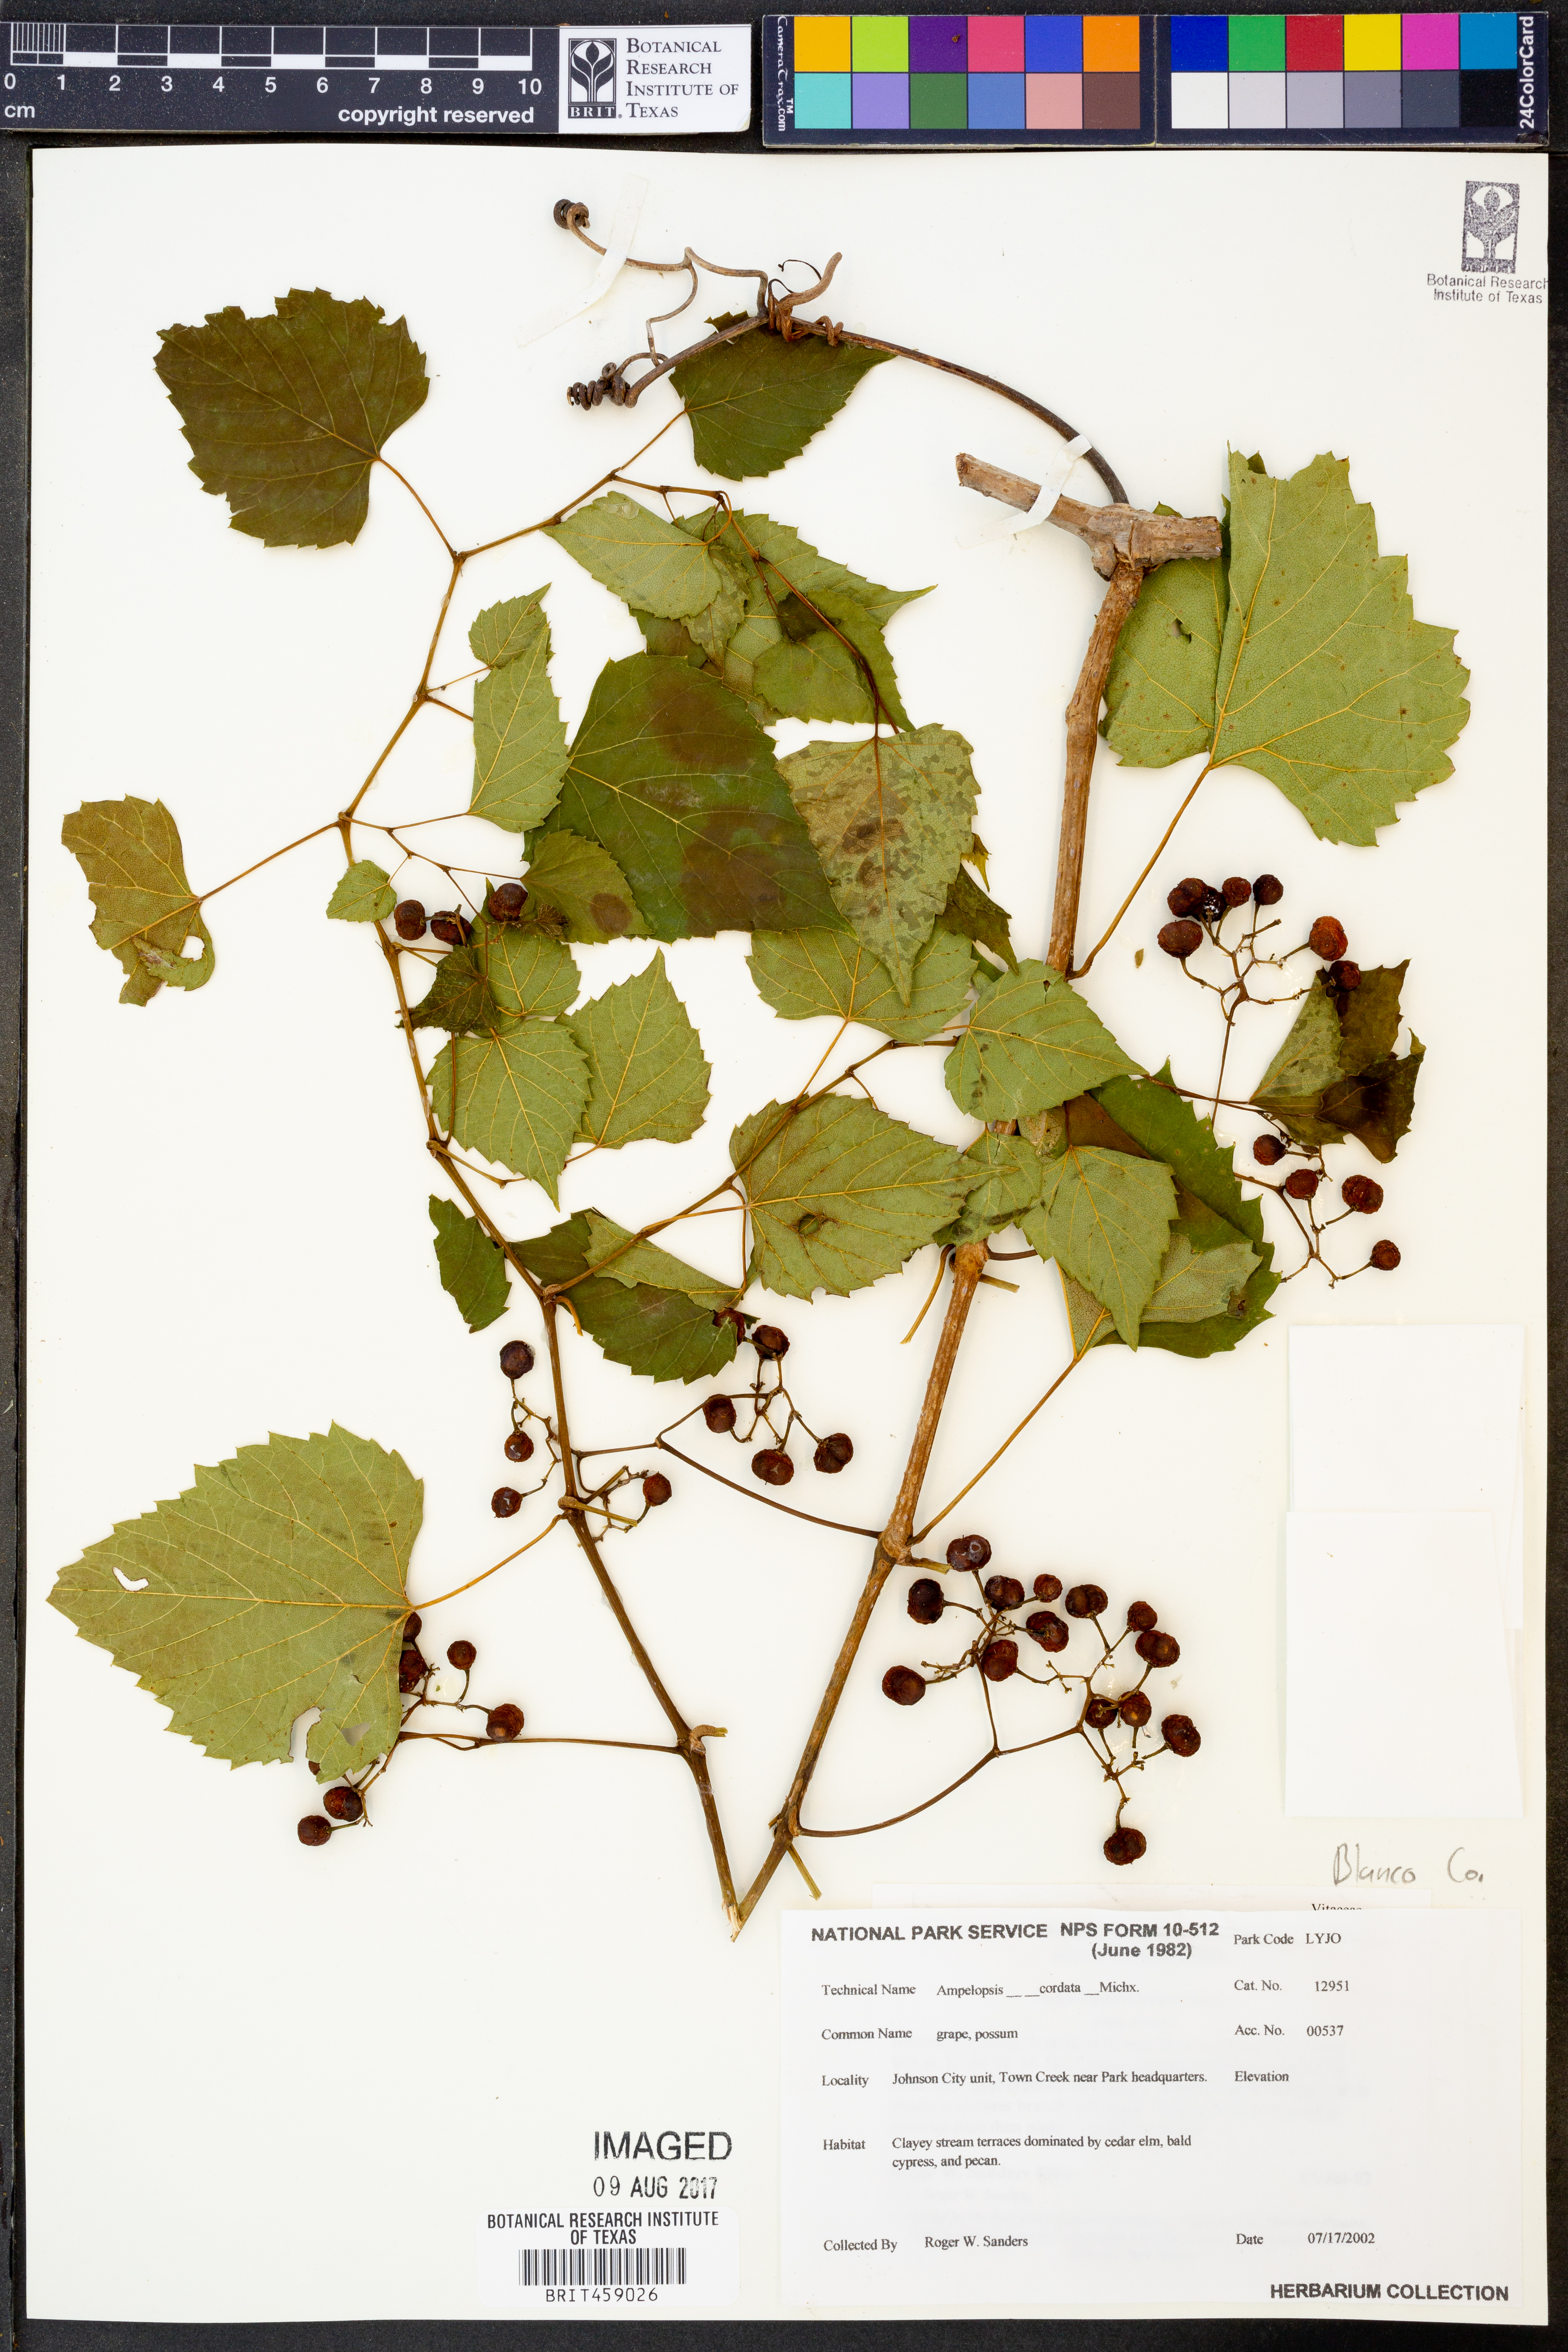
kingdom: Plantae
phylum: Tracheophyta
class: Magnoliopsida
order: Vitales
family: Vitaceae
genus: Ampelopsis
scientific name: Ampelopsis cordata
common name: Heart-leaf ampelopsis
